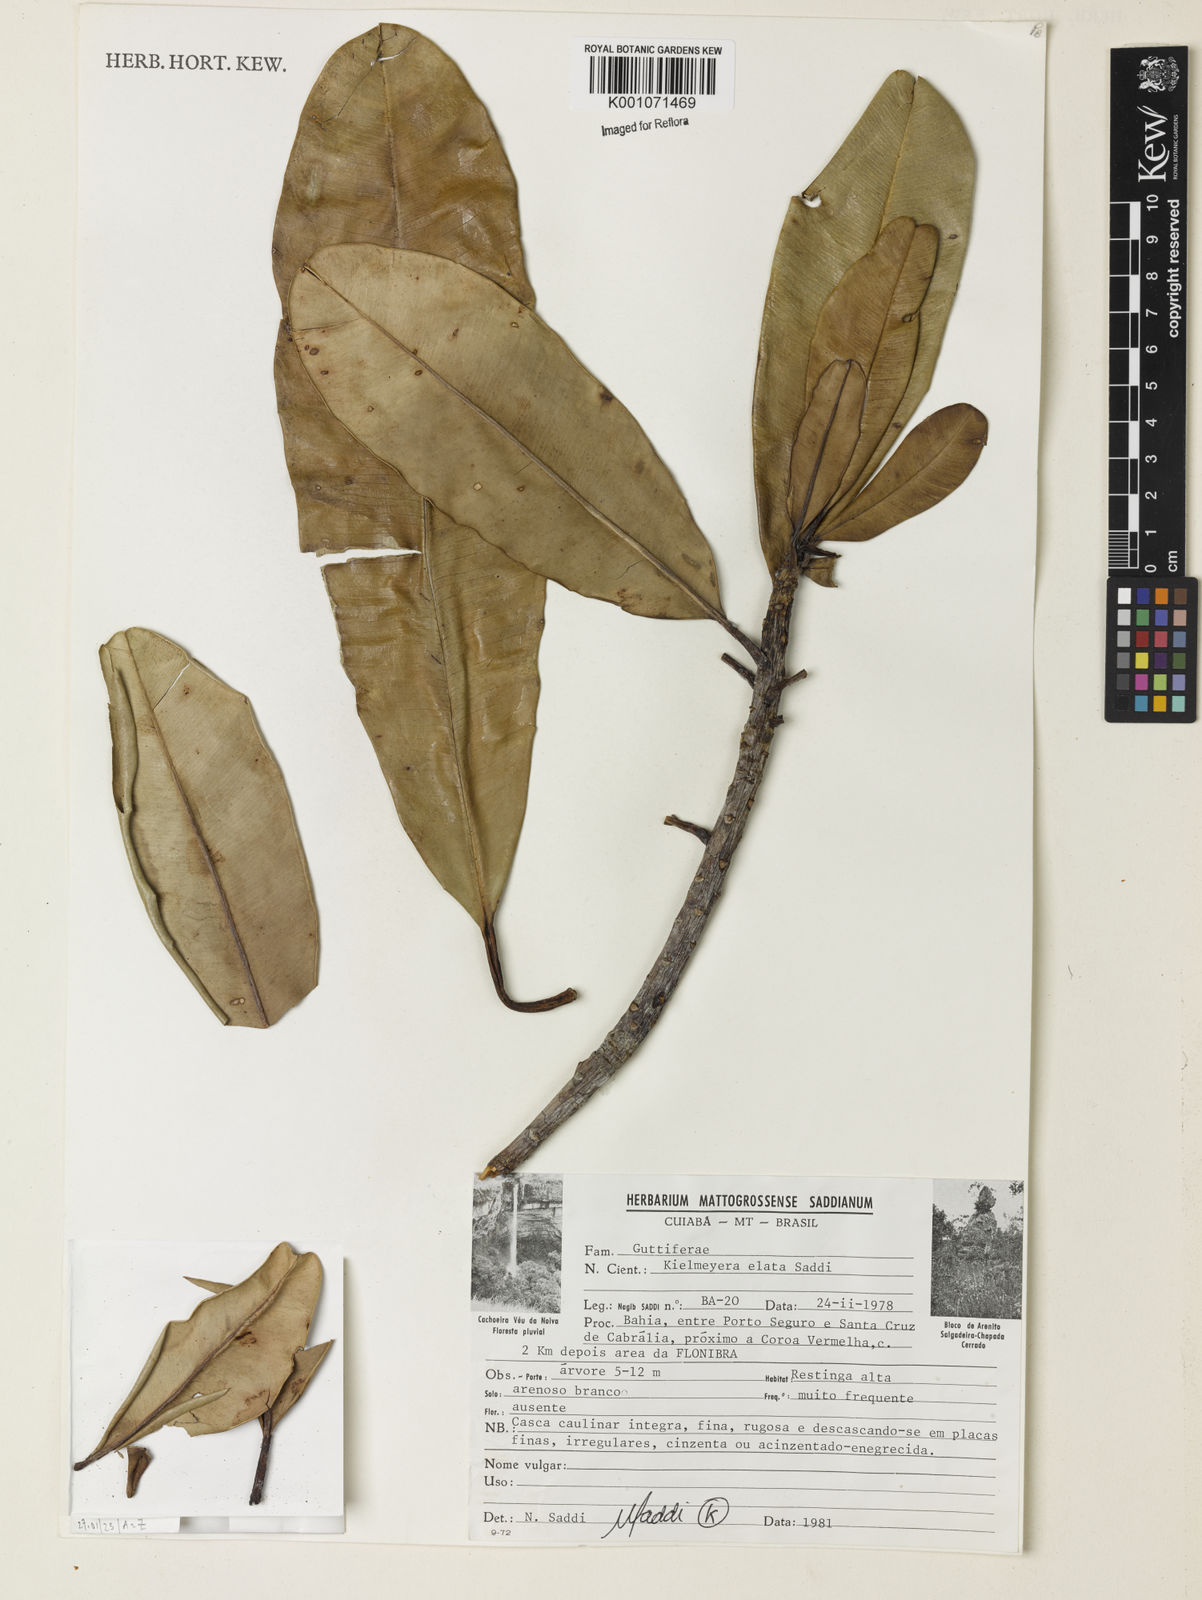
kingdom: Plantae
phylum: Tracheophyta
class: Magnoliopsida
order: Malpighiales
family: Calophyllaceae
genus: Kielmeyera
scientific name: Kielmeyera elata
